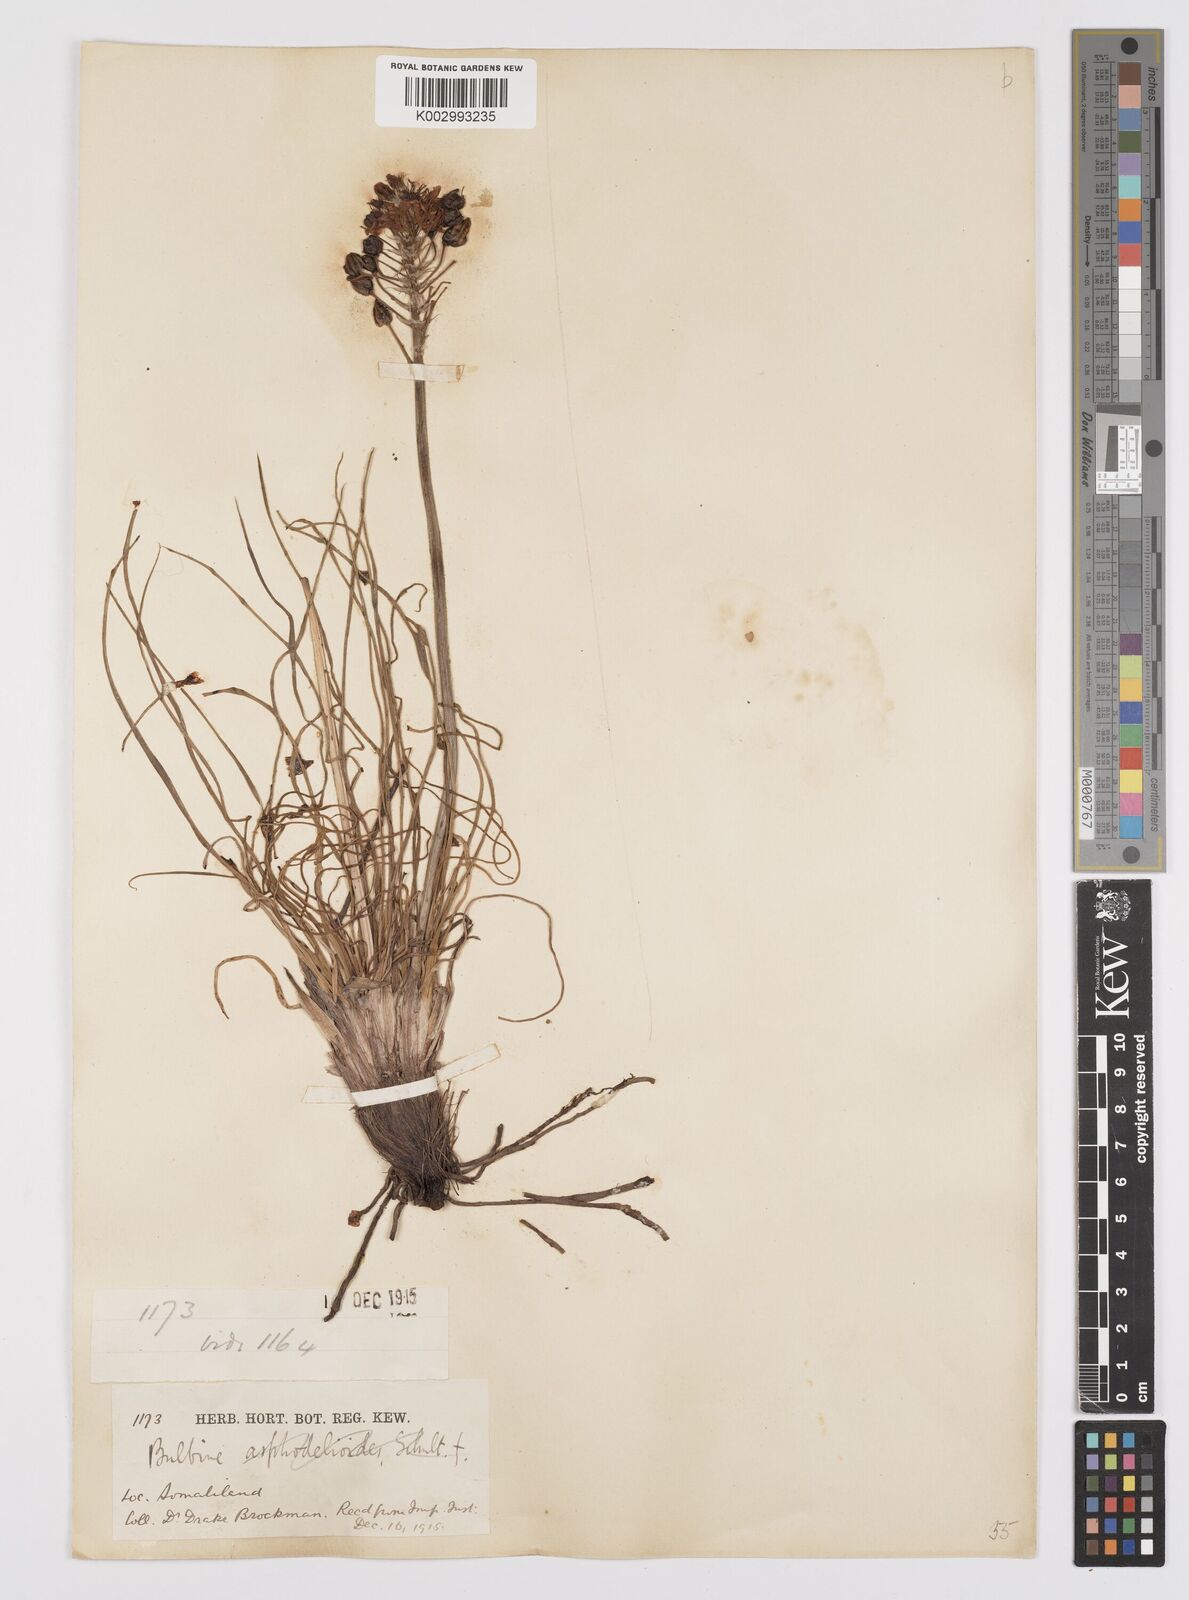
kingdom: Plantae
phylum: Tracheophyta
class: Liliopsida
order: Asparagales
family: Asphodelaceae
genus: Bulbine
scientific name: Bulbine abyssinica
